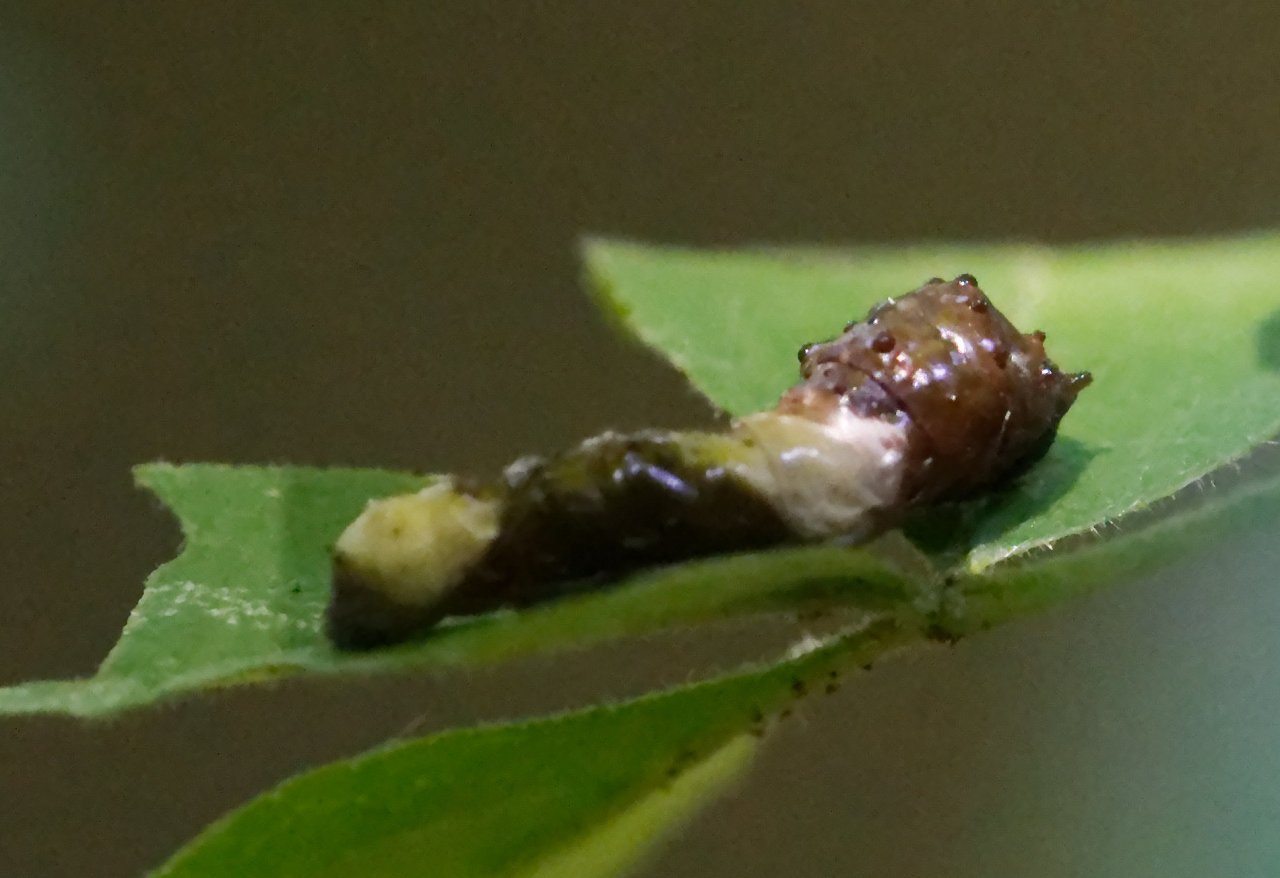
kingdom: Animalia
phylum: Arthropoda
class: Insecta
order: Lepidoptera
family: Papilionidae
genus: Papilio
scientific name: Papilio cresphontes
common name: Eastern Giant Swallowtail
